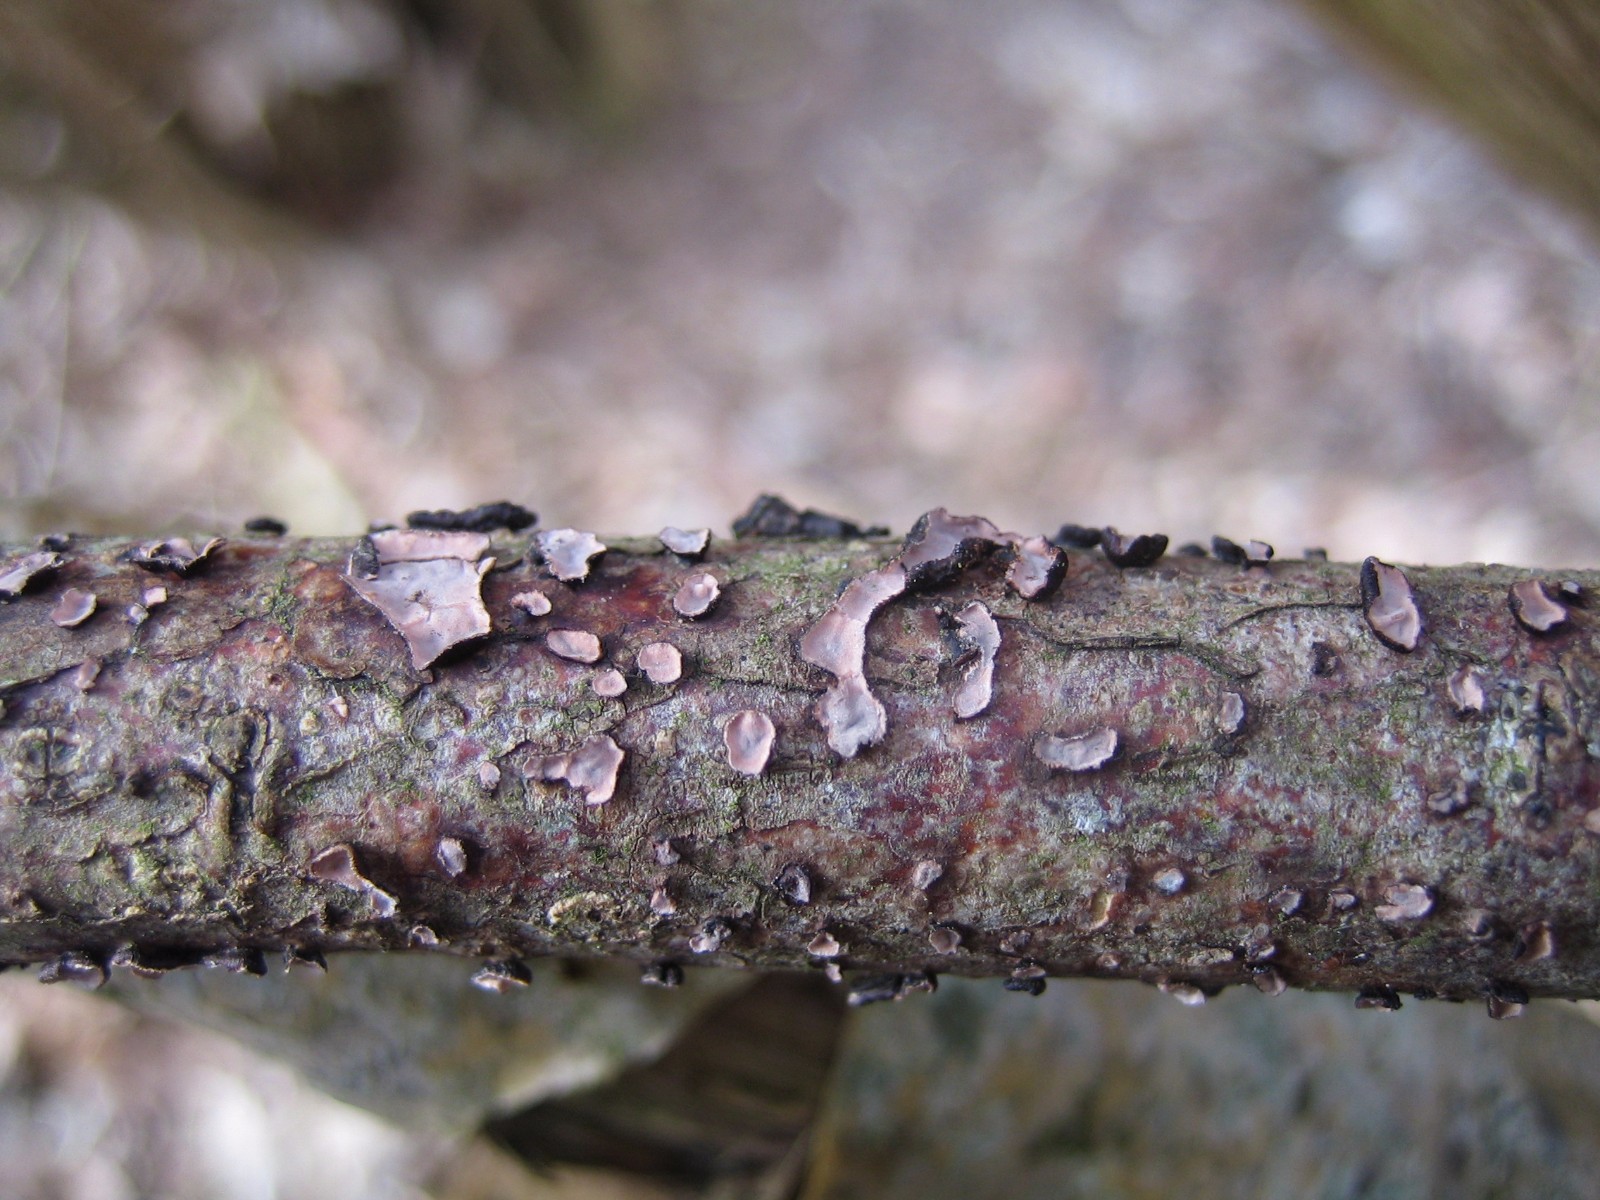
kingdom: Fungi
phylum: Basidiomycota
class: Agaricomycetes
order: Russulales
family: Peniophoraceae
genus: Peniophora
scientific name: Peniophora quercina
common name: ege-voksskind
